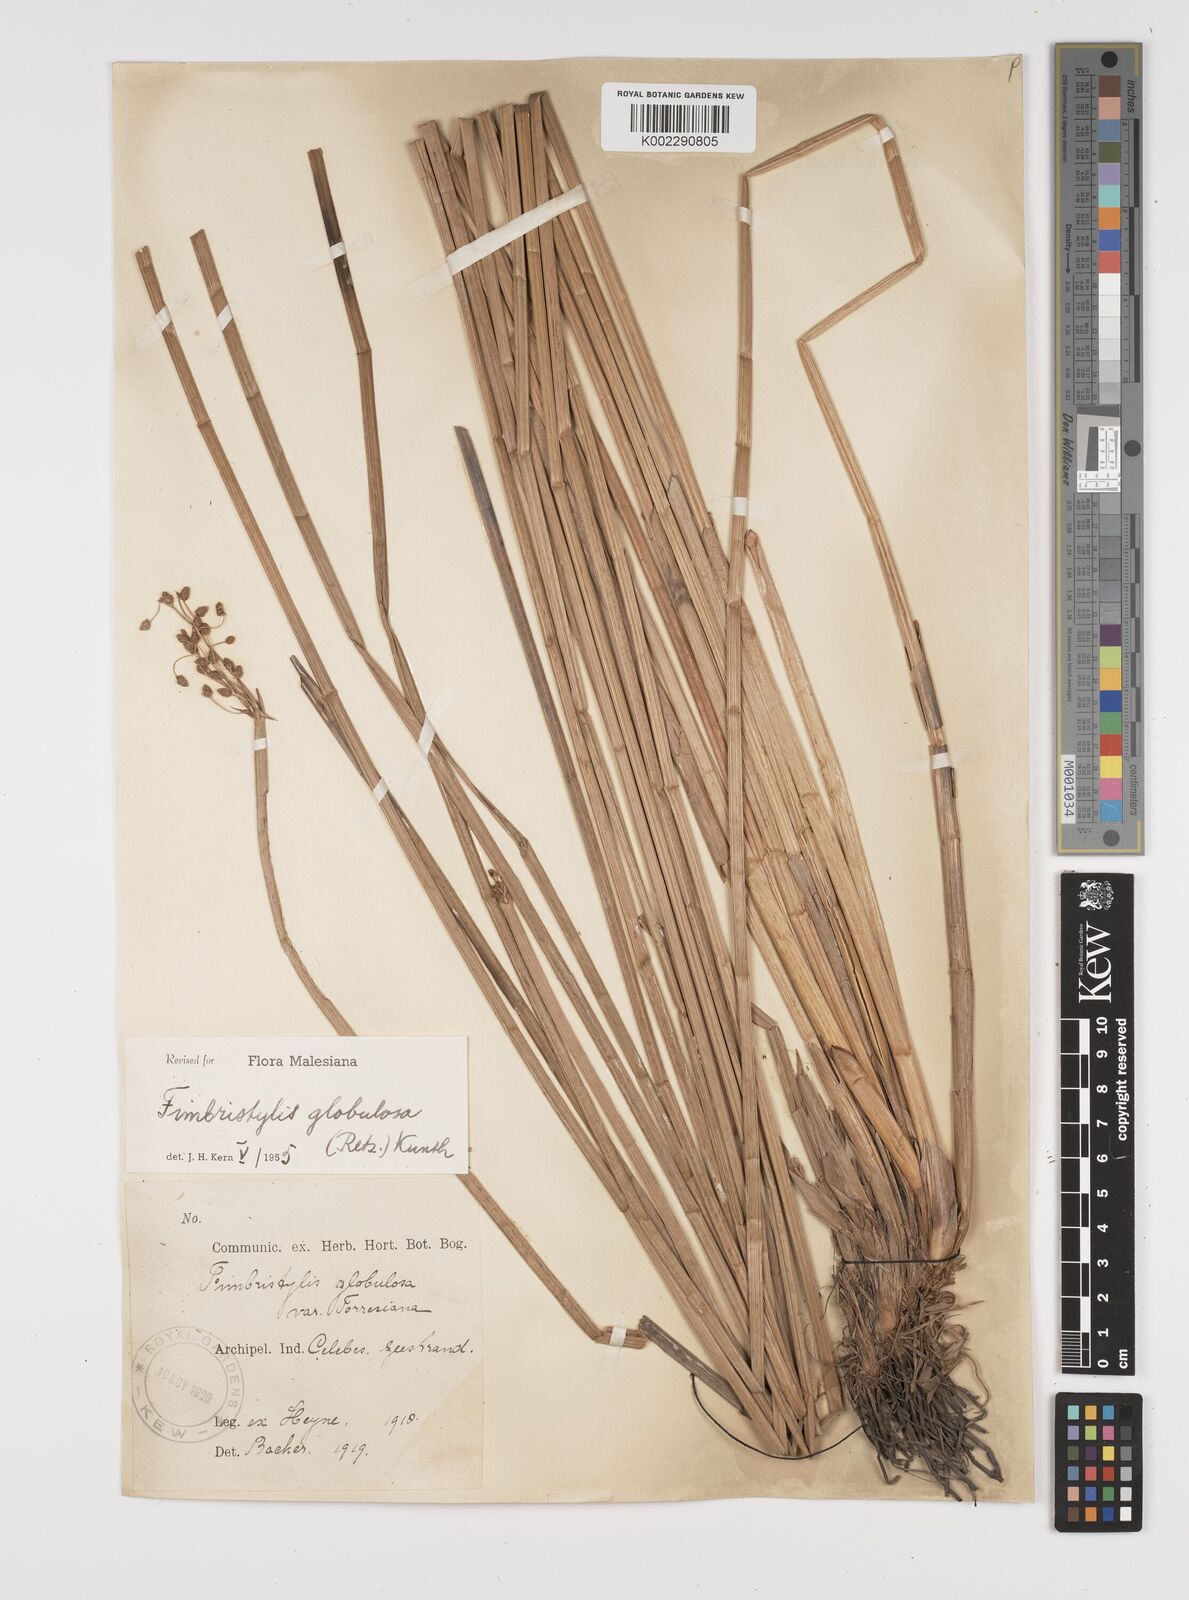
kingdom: Plantae
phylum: Tracheophyta
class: Liliopsida
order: Poales
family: Cyperaceae
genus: Fimbristylis
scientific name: Fimbristylis umbellaris
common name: Globular fimbristylis
